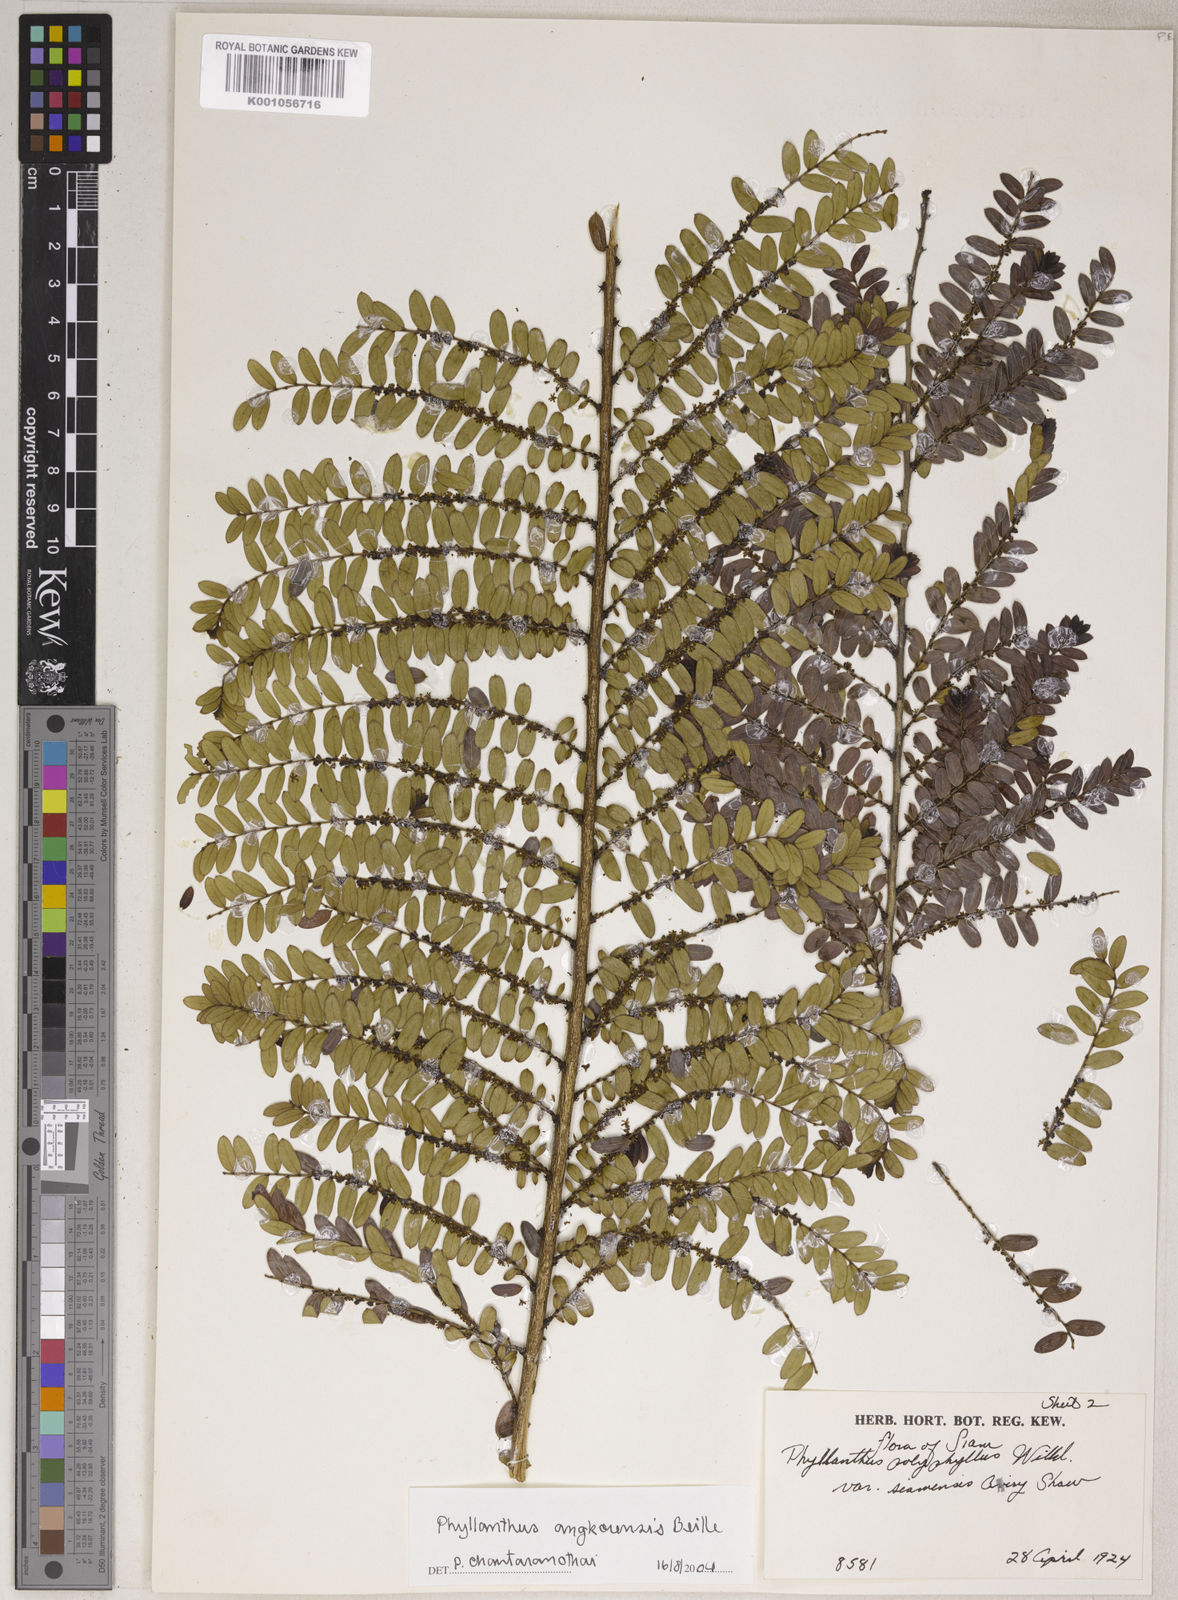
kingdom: Plantae
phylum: Tracheophyta
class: Magnoliopsida
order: Malpighiales
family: Phyllanthaceae
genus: Phyllanthus
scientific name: Phyllanthus angkorensis
